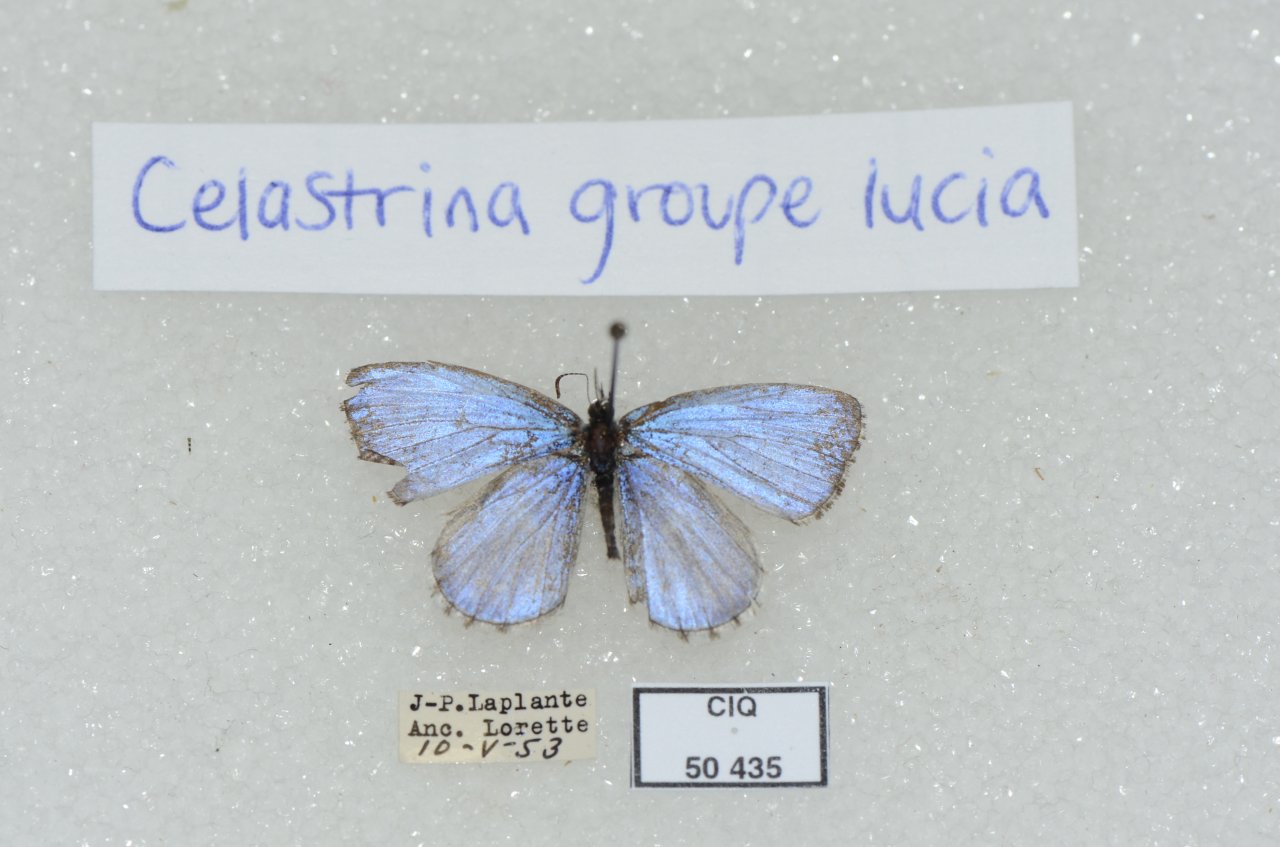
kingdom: Animalia
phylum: Arthropoda
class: Insecta
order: Lepidoptera
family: Lycaenidae
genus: Celastrina
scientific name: Celastrina lucia
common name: Northern Spring Azure
